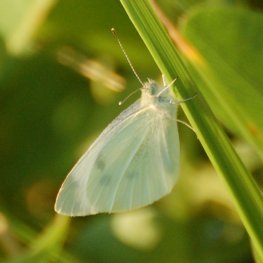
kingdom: Animalia
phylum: Arthropoda
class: Insecta
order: Lepidoptera
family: Pieridae
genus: Pieris
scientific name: Pieris rapae
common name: Cabbage White
